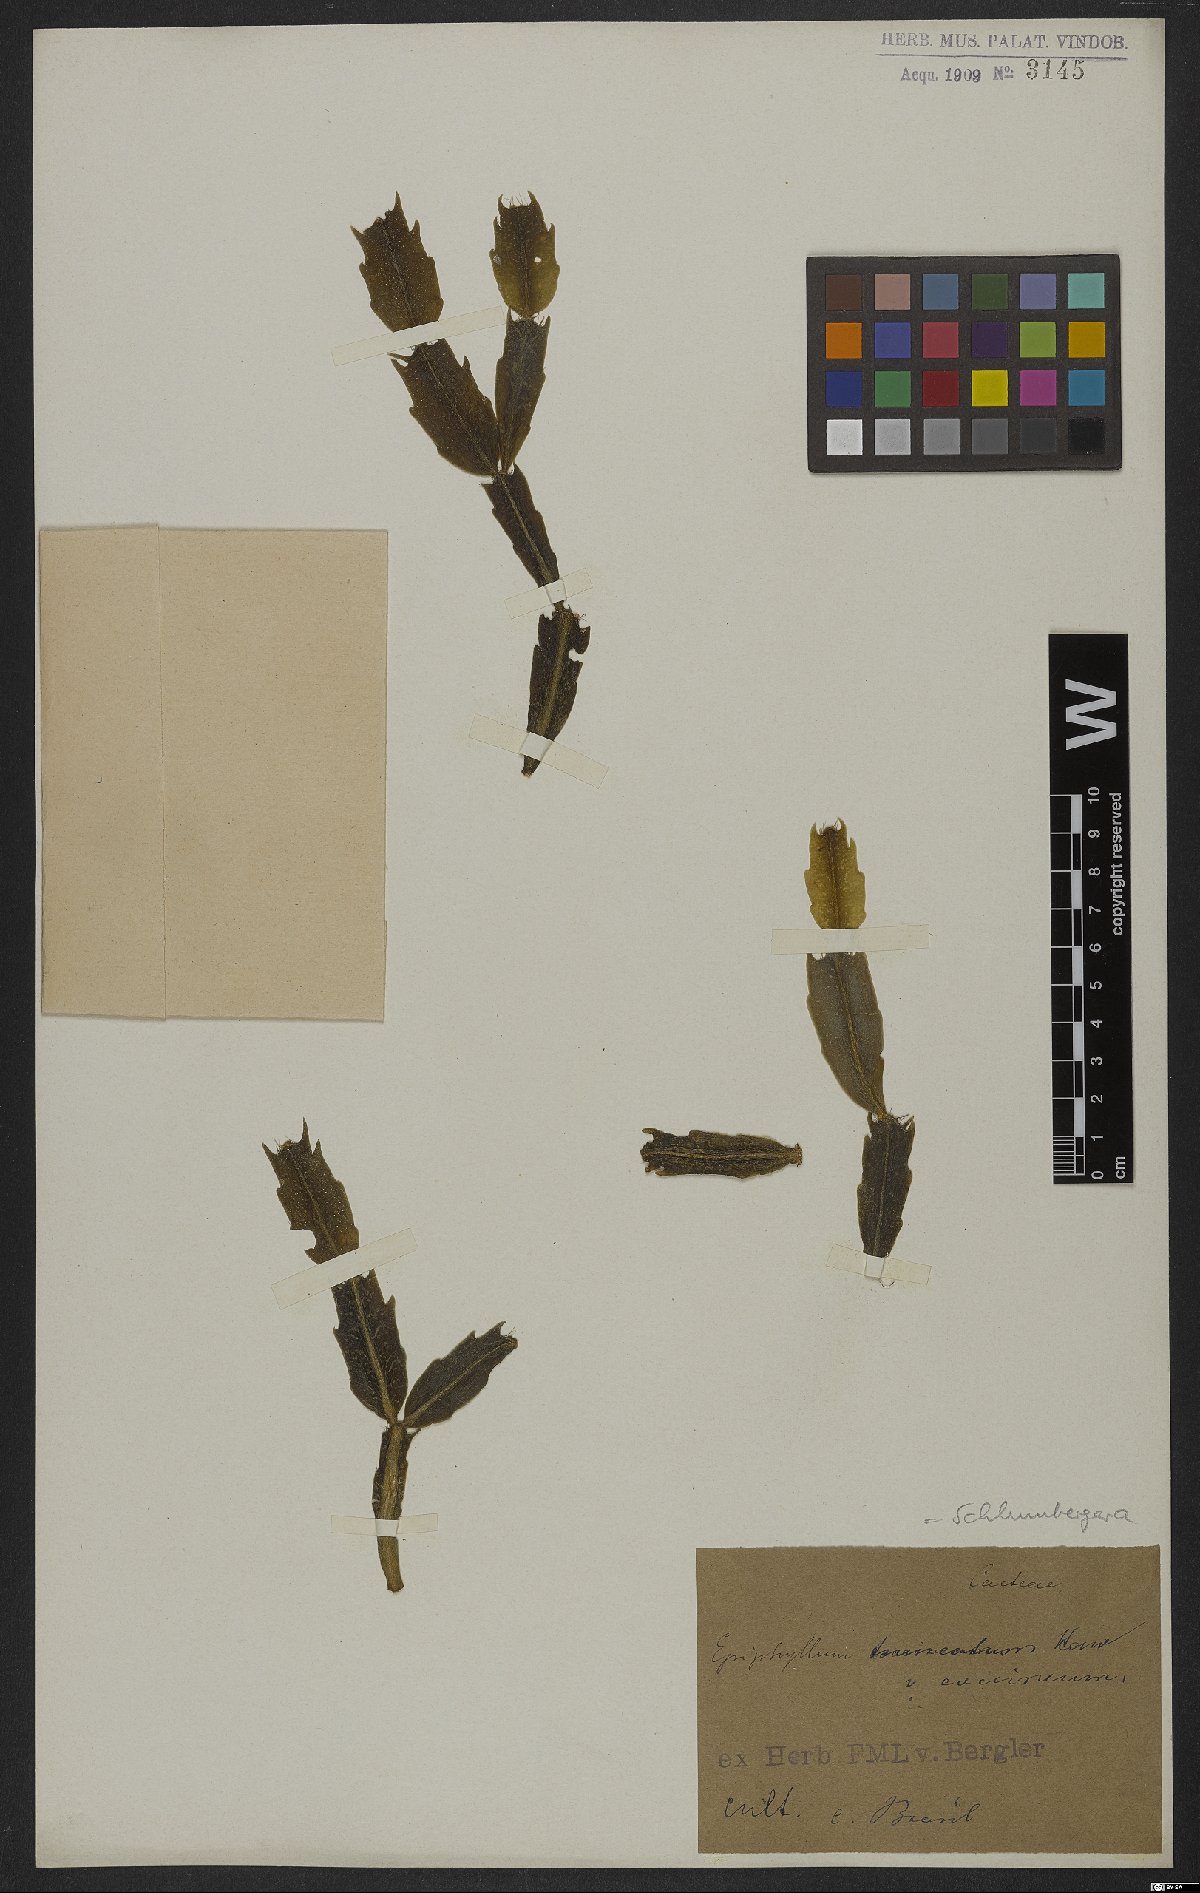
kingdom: Plantae
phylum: Tracheophyta
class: Magnoliopsida
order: Caryophyllales
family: Cactaceae
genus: Schlumbergera
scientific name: Schlumbergera truncata
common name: Thanksgiving cactus
